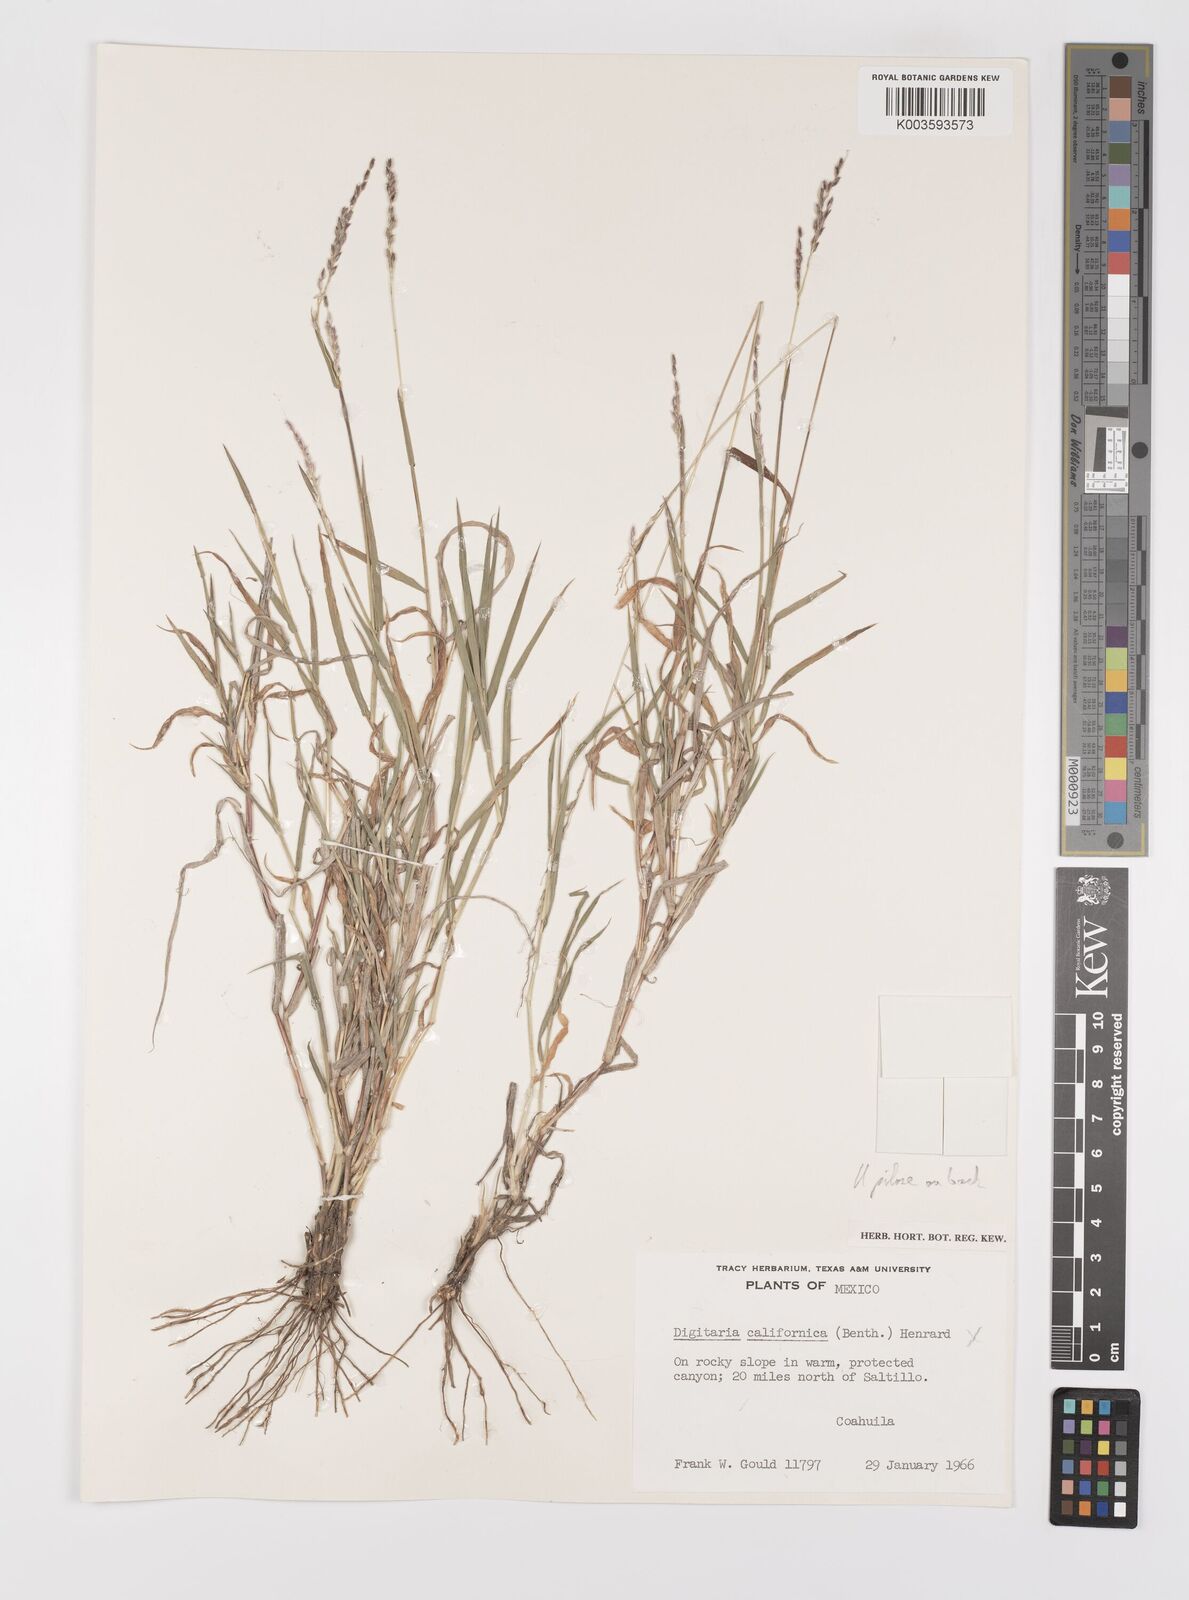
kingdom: Plantae
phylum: Tracheophyta
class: Liliopsida
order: Poales
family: Poaceae
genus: Digitaria
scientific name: Digitaria spec
